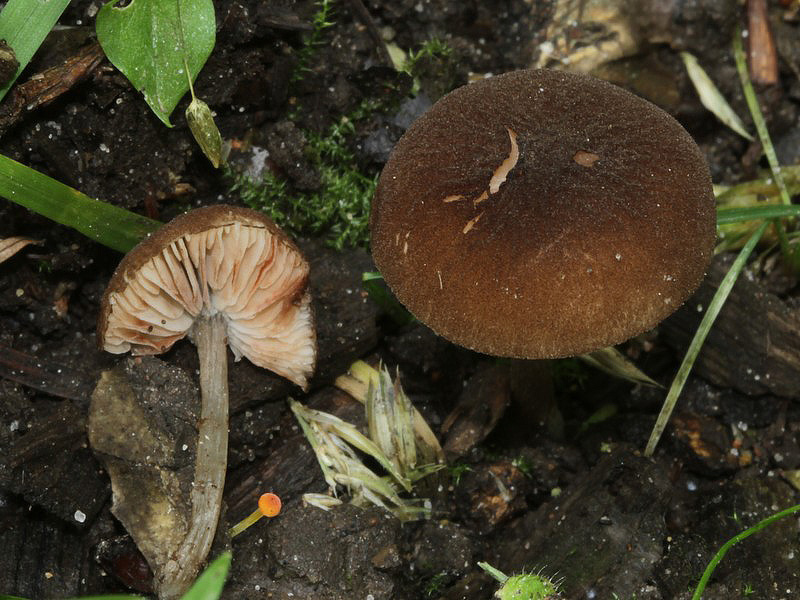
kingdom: Fungi
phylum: Basidiomycota
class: Agaricomycetes
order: Agaricales
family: Pluteaceae
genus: Pluteus
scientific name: Pluteus podospileus
